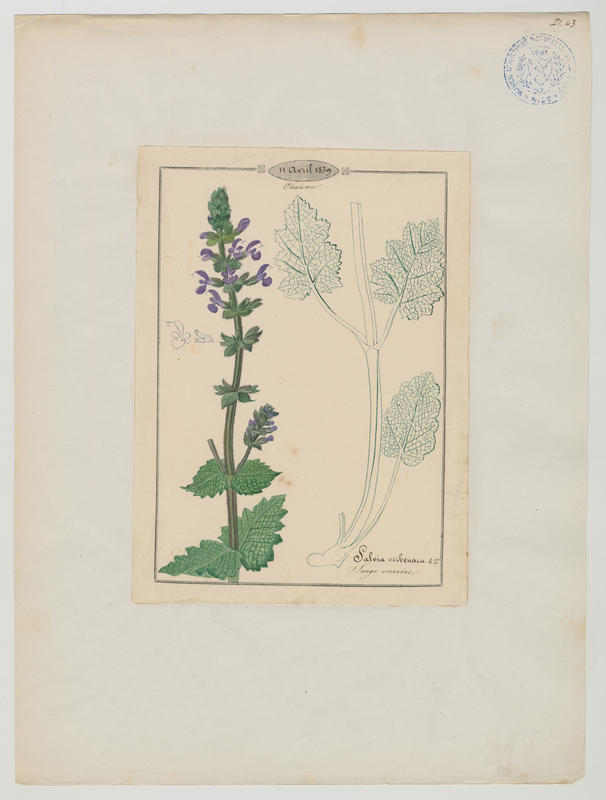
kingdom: Plantae
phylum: Tracheophyta
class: Magnoliopsida
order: Lamiales
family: Lamiaceae
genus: Salvia
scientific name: Salvia verbenaca
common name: Wild clary
